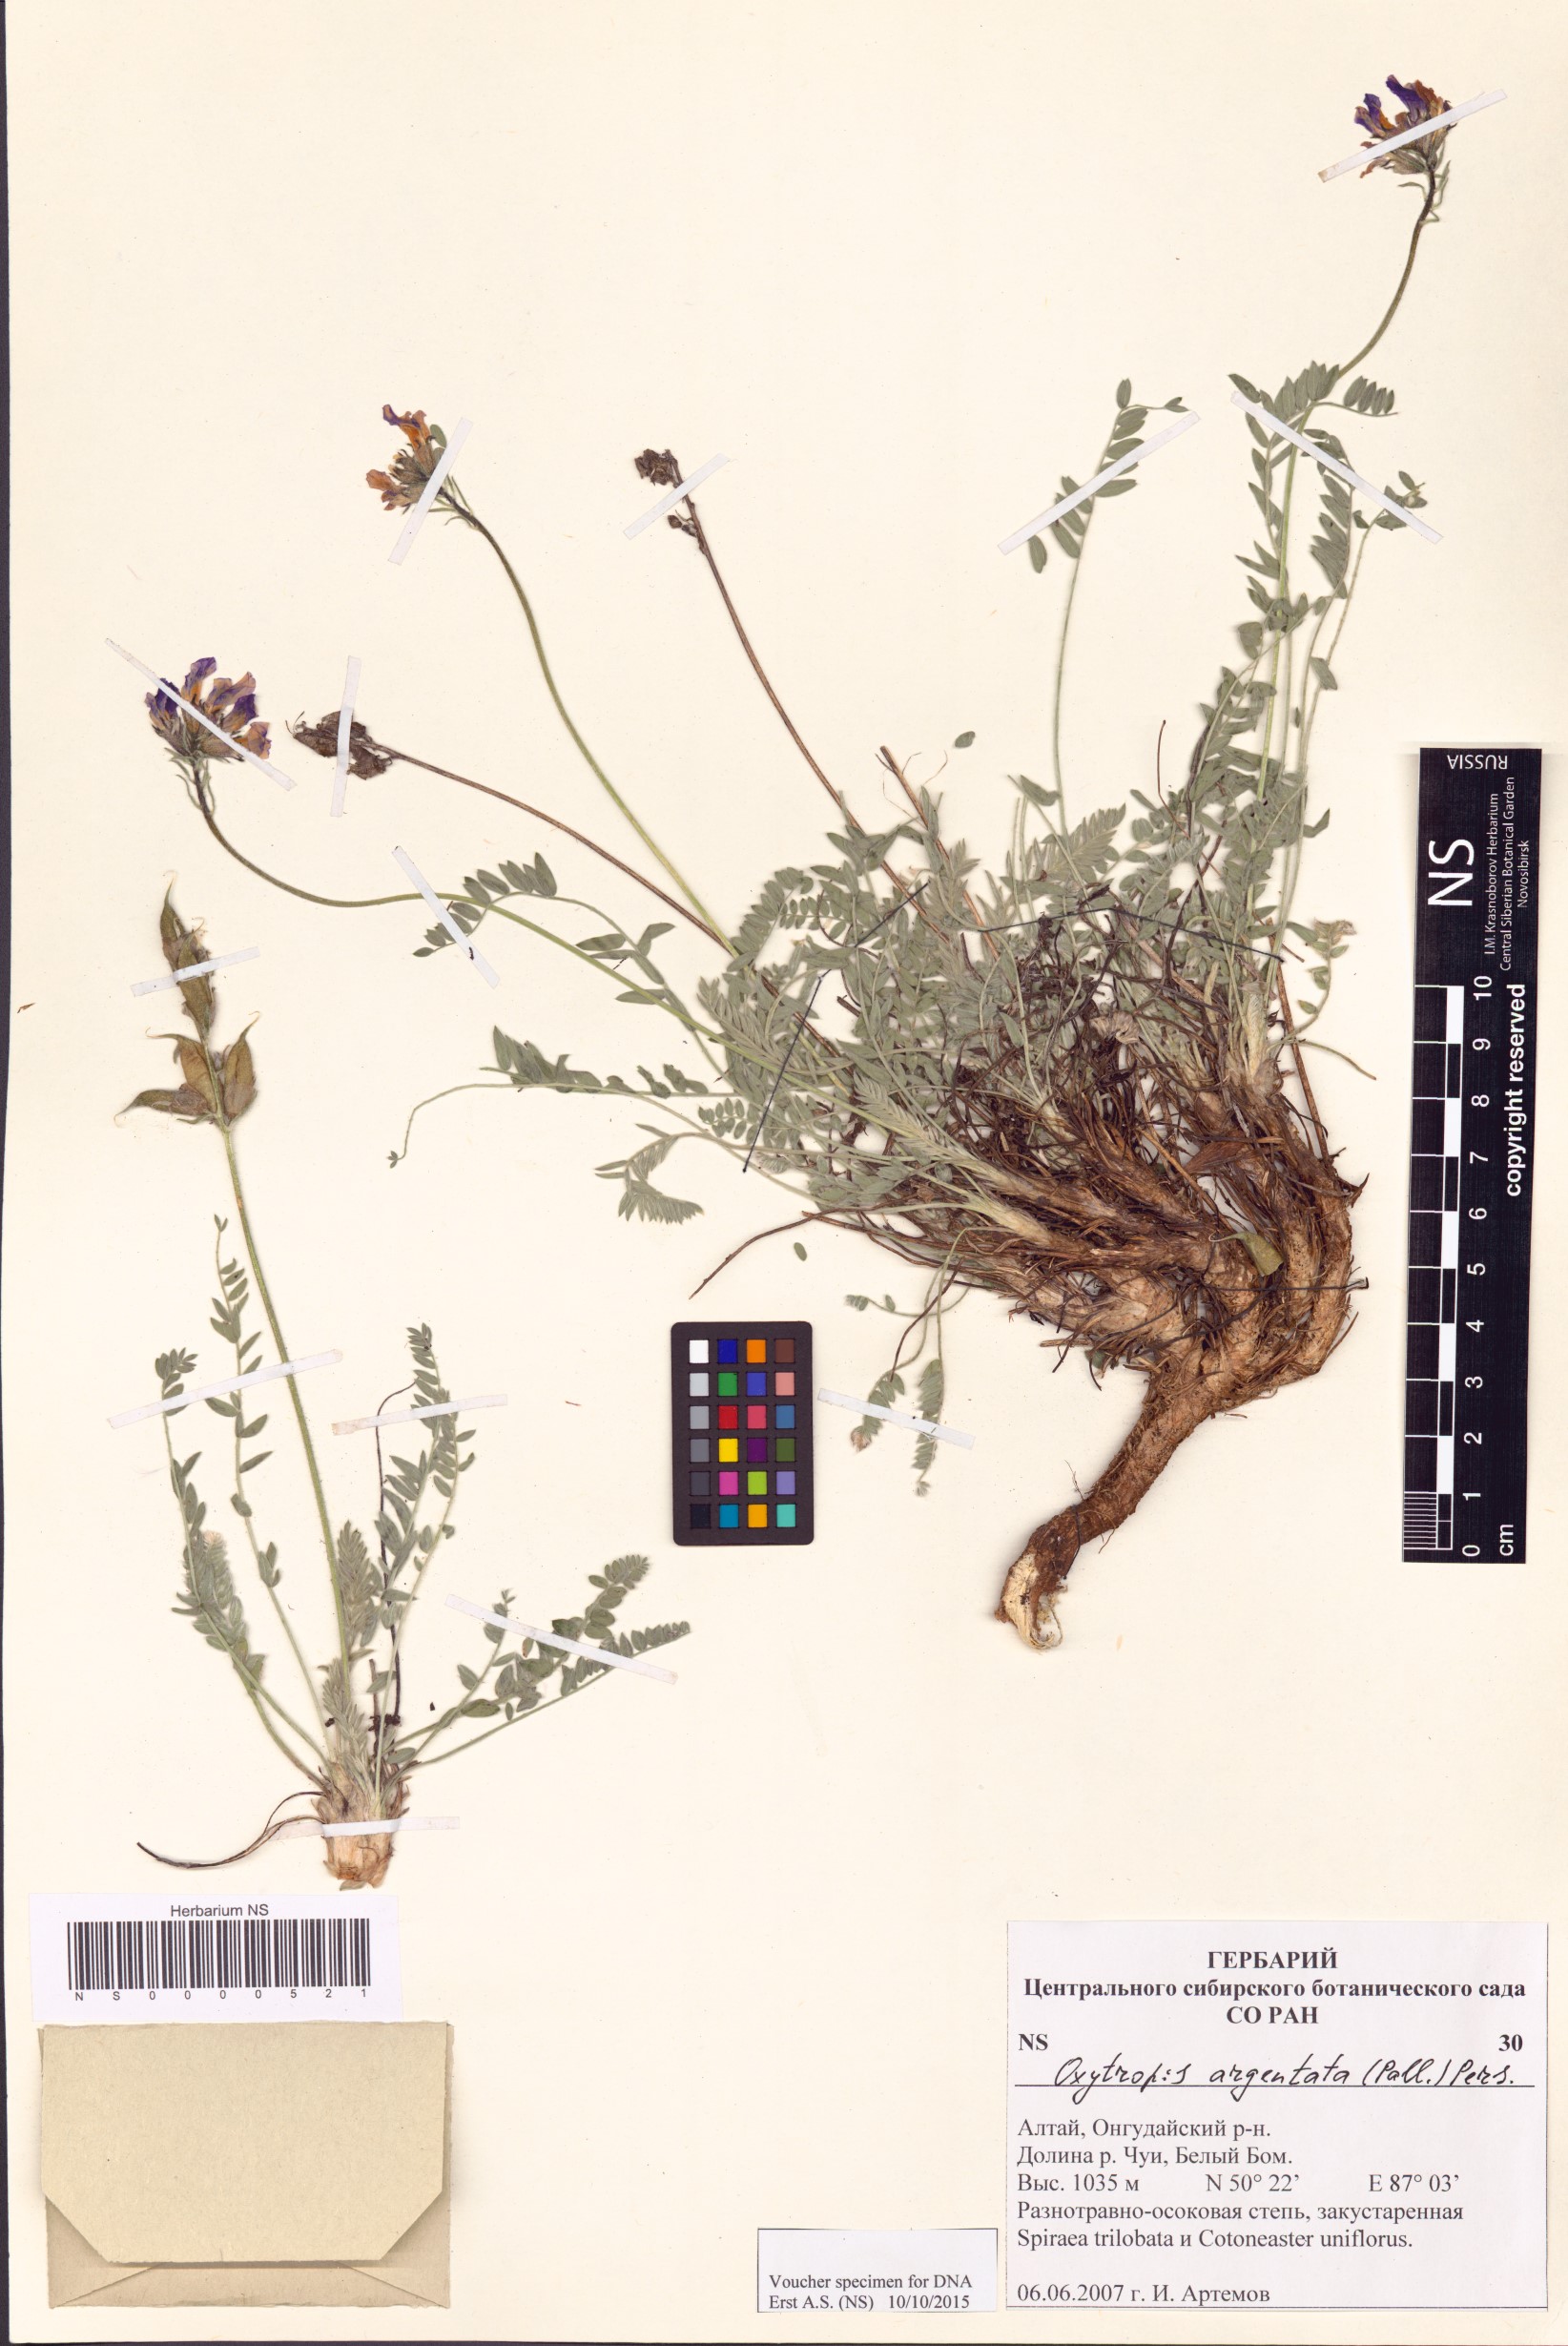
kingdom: Plantae
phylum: Tracheophyta
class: Magnoliopsida
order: Fabales
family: Fabaceae
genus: Oxytropis
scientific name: Oxytropis argentata
